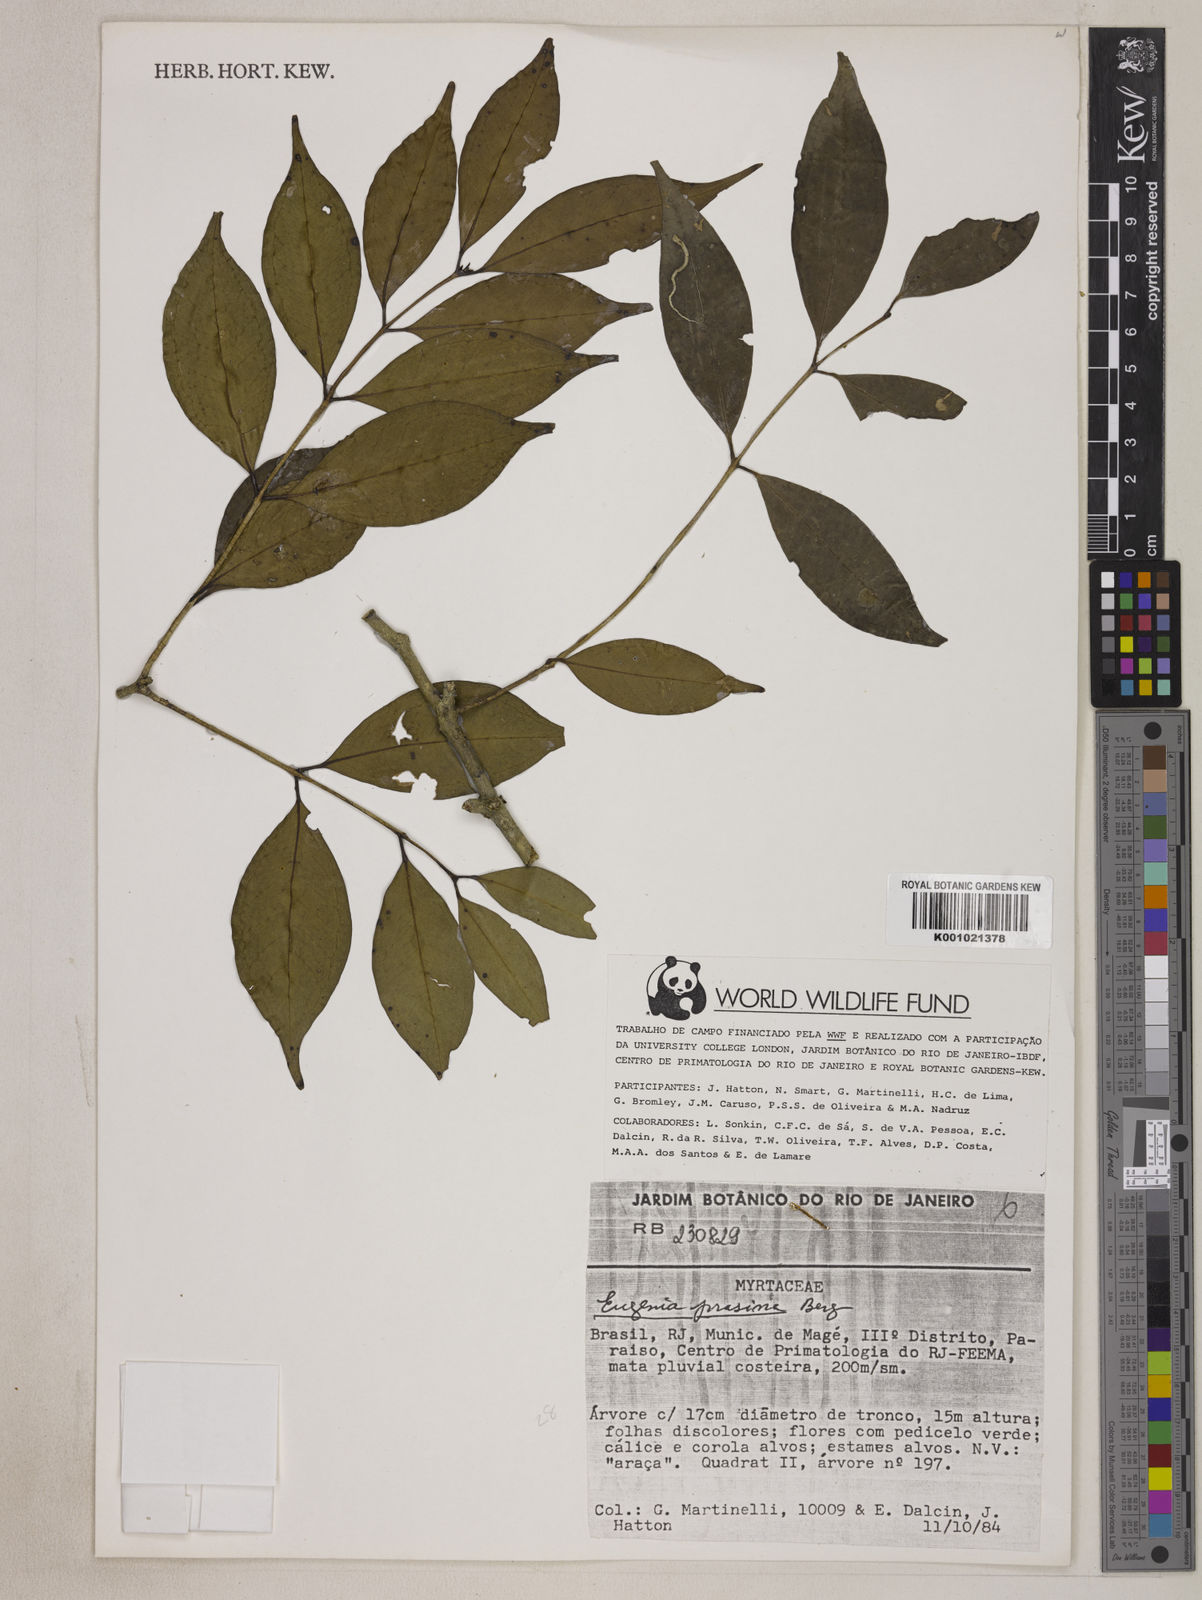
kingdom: Plantae
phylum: Tracheophyta
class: Magnoliopsida
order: Myrtales
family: Myrtaceae
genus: Eugenia
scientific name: Eugenia prasina
